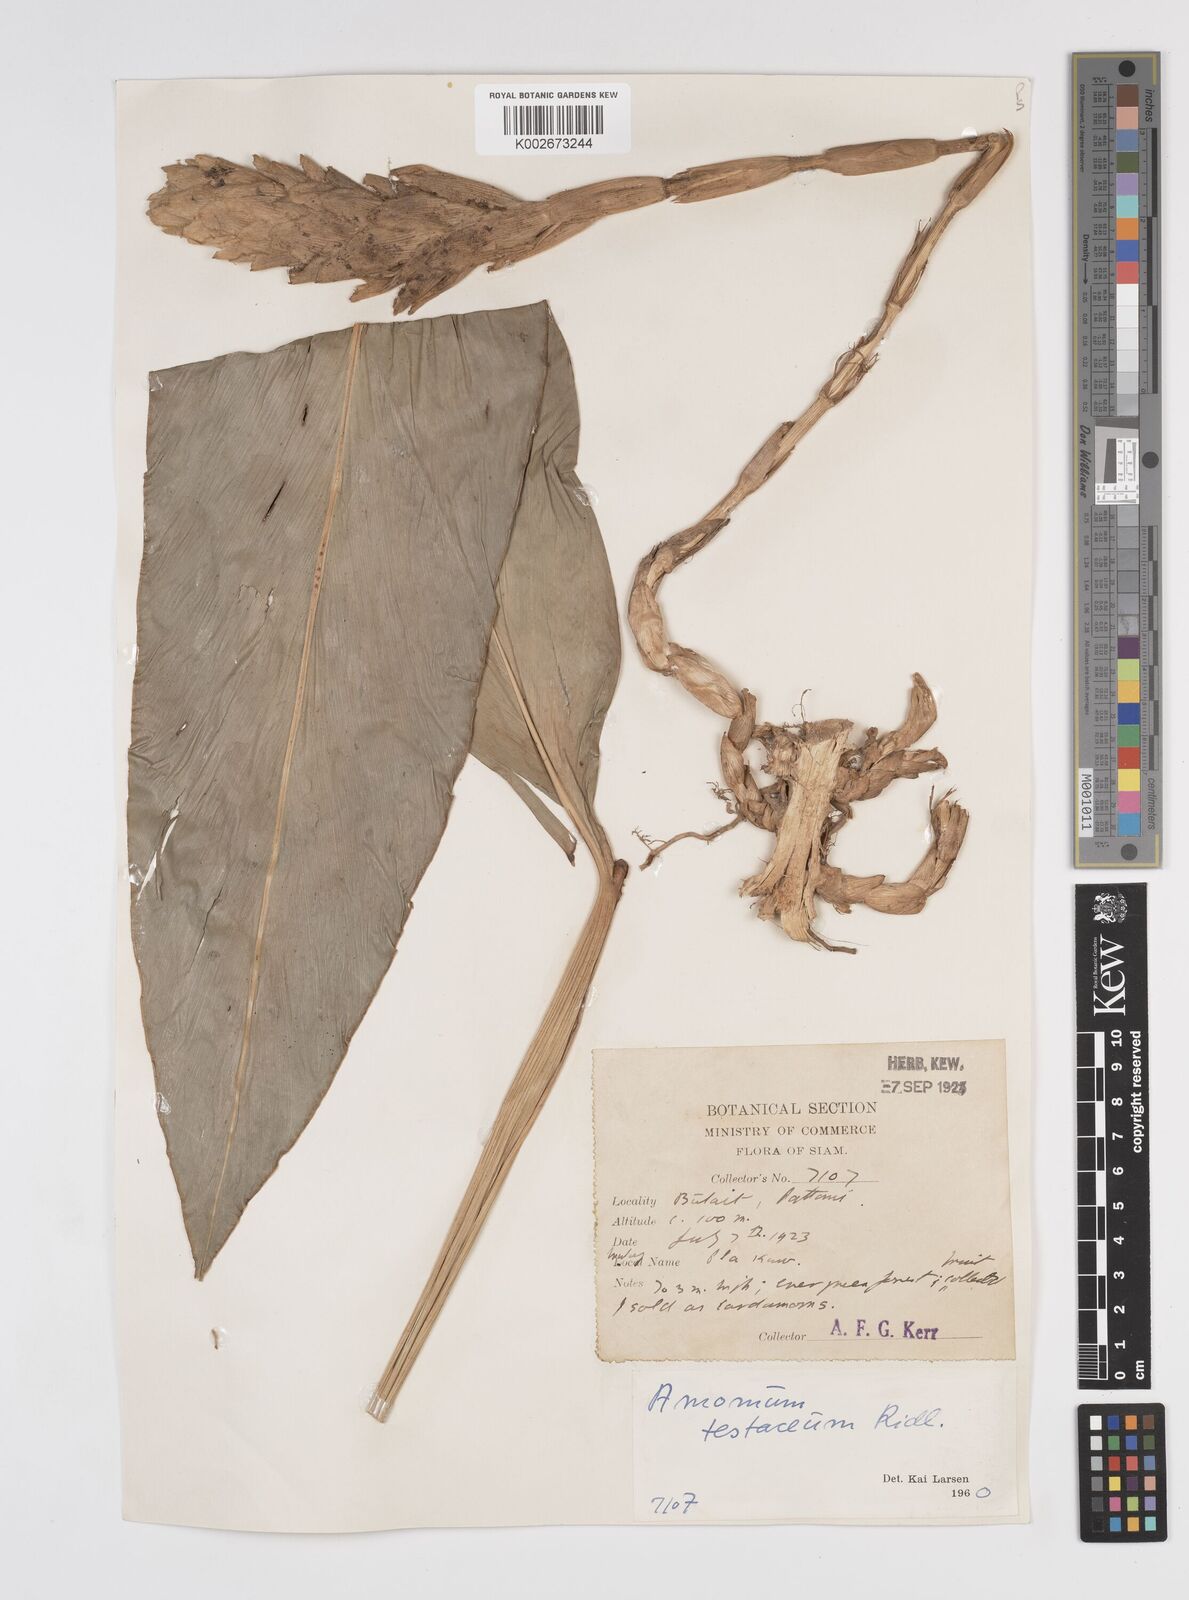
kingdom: Plantae
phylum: Tracheophyta
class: Liliopsida
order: Zingiberales
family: Zingiberaceae
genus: Wurfbainia
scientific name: Wurfbainia testacea
